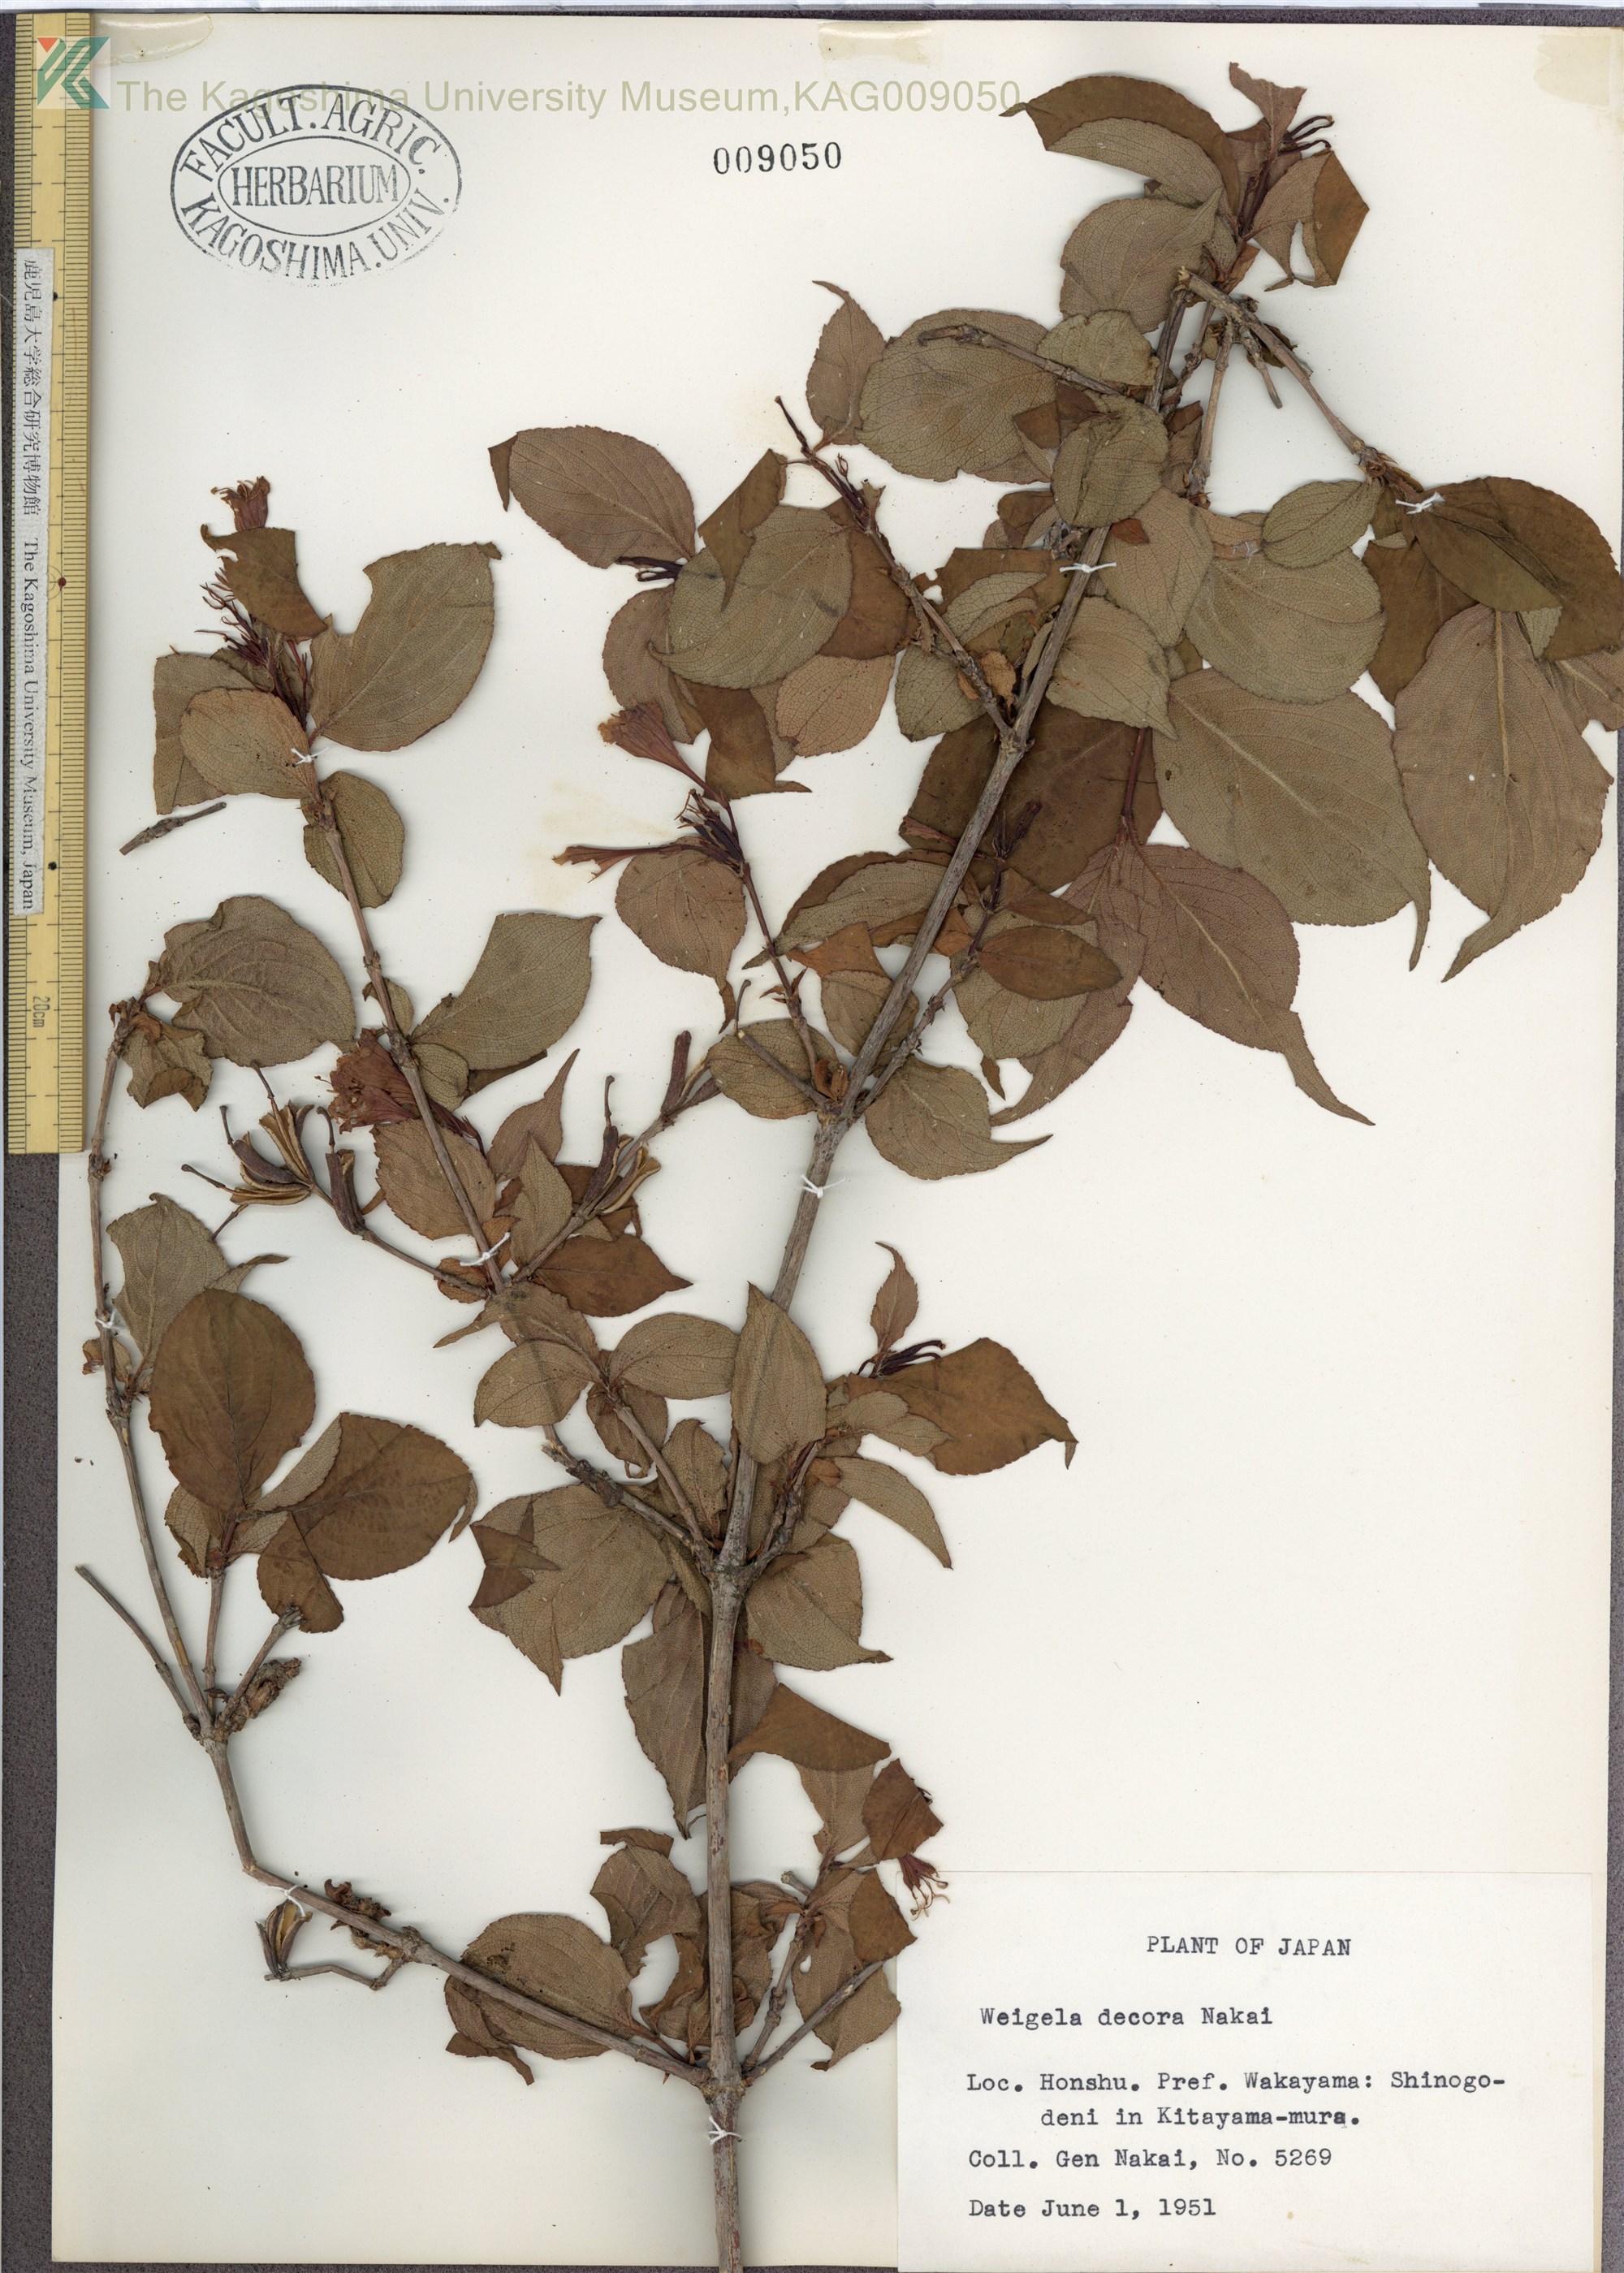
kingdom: Plantae
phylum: Tracheophyta
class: Magnoliopsida
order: Dipsacales
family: Caprifoliaceae
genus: Weigela
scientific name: Weigela decora
